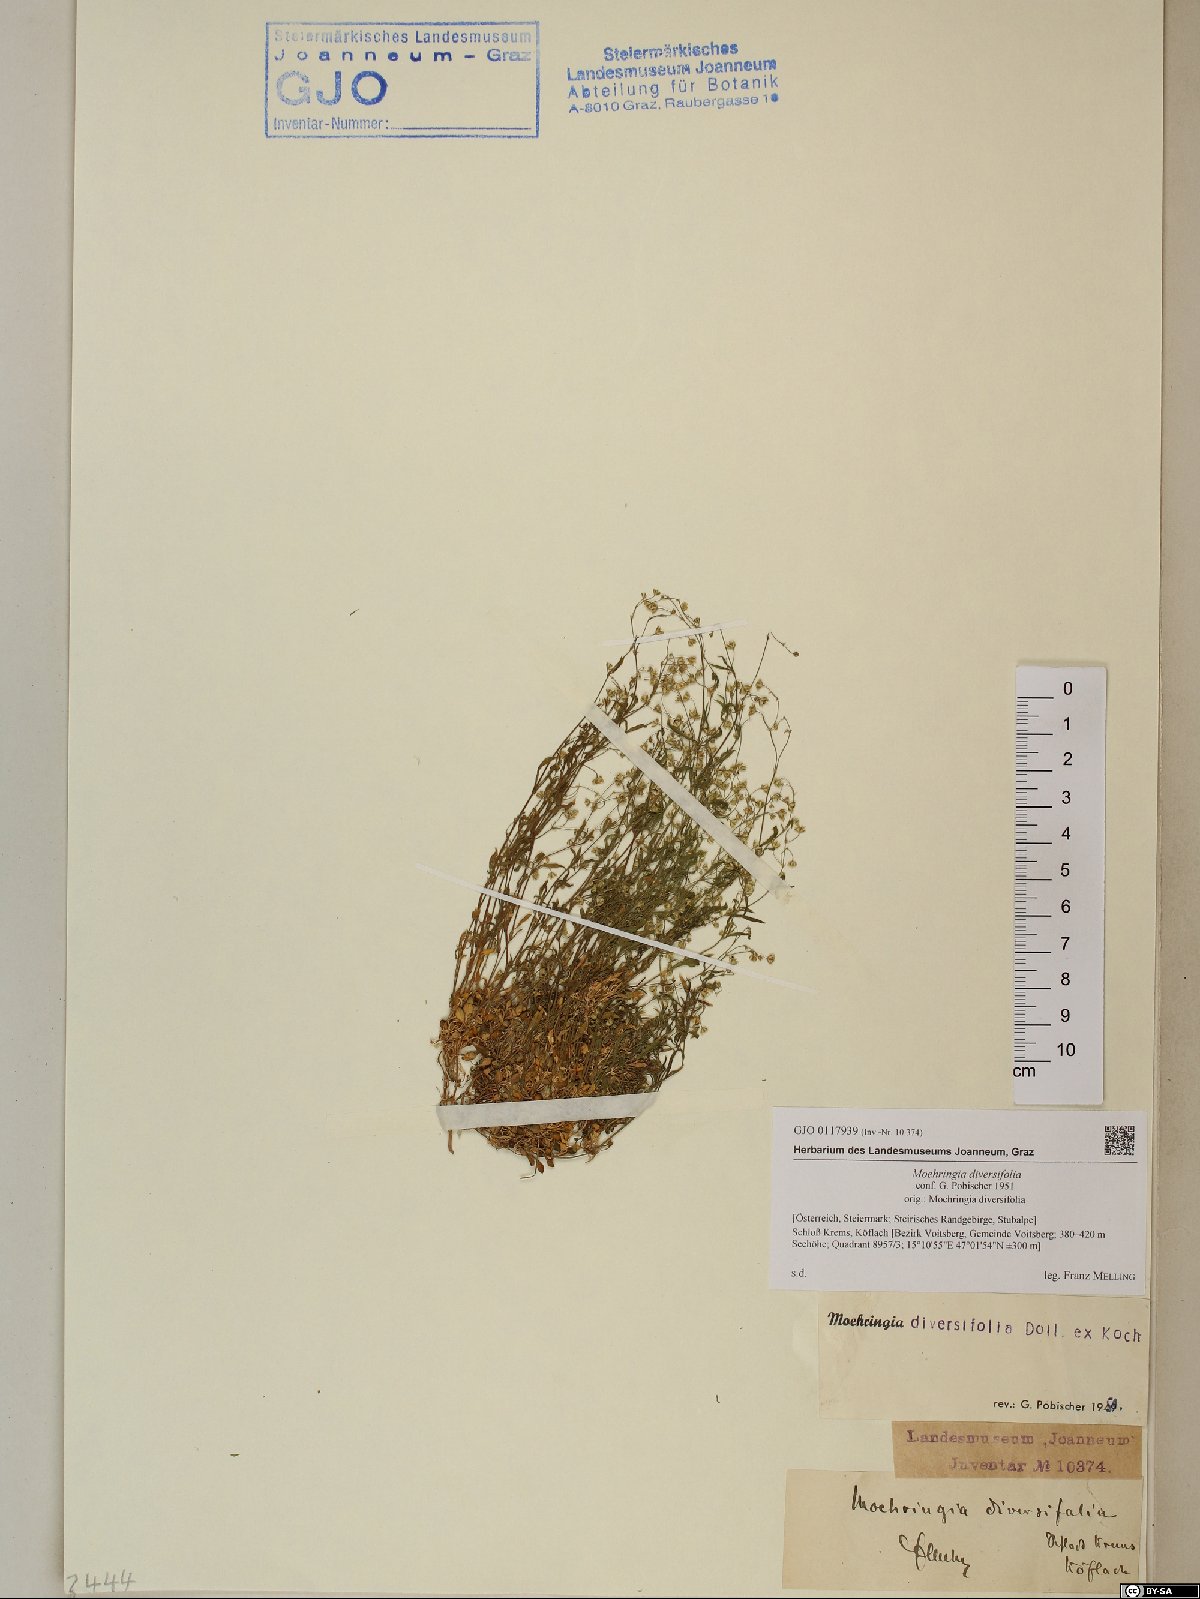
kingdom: Plantae
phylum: Tracheophyta
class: Magnoliopsida
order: Caryophyllales
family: Caryophyllaceae
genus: Moehringia
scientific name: Moehringia diversifolia
